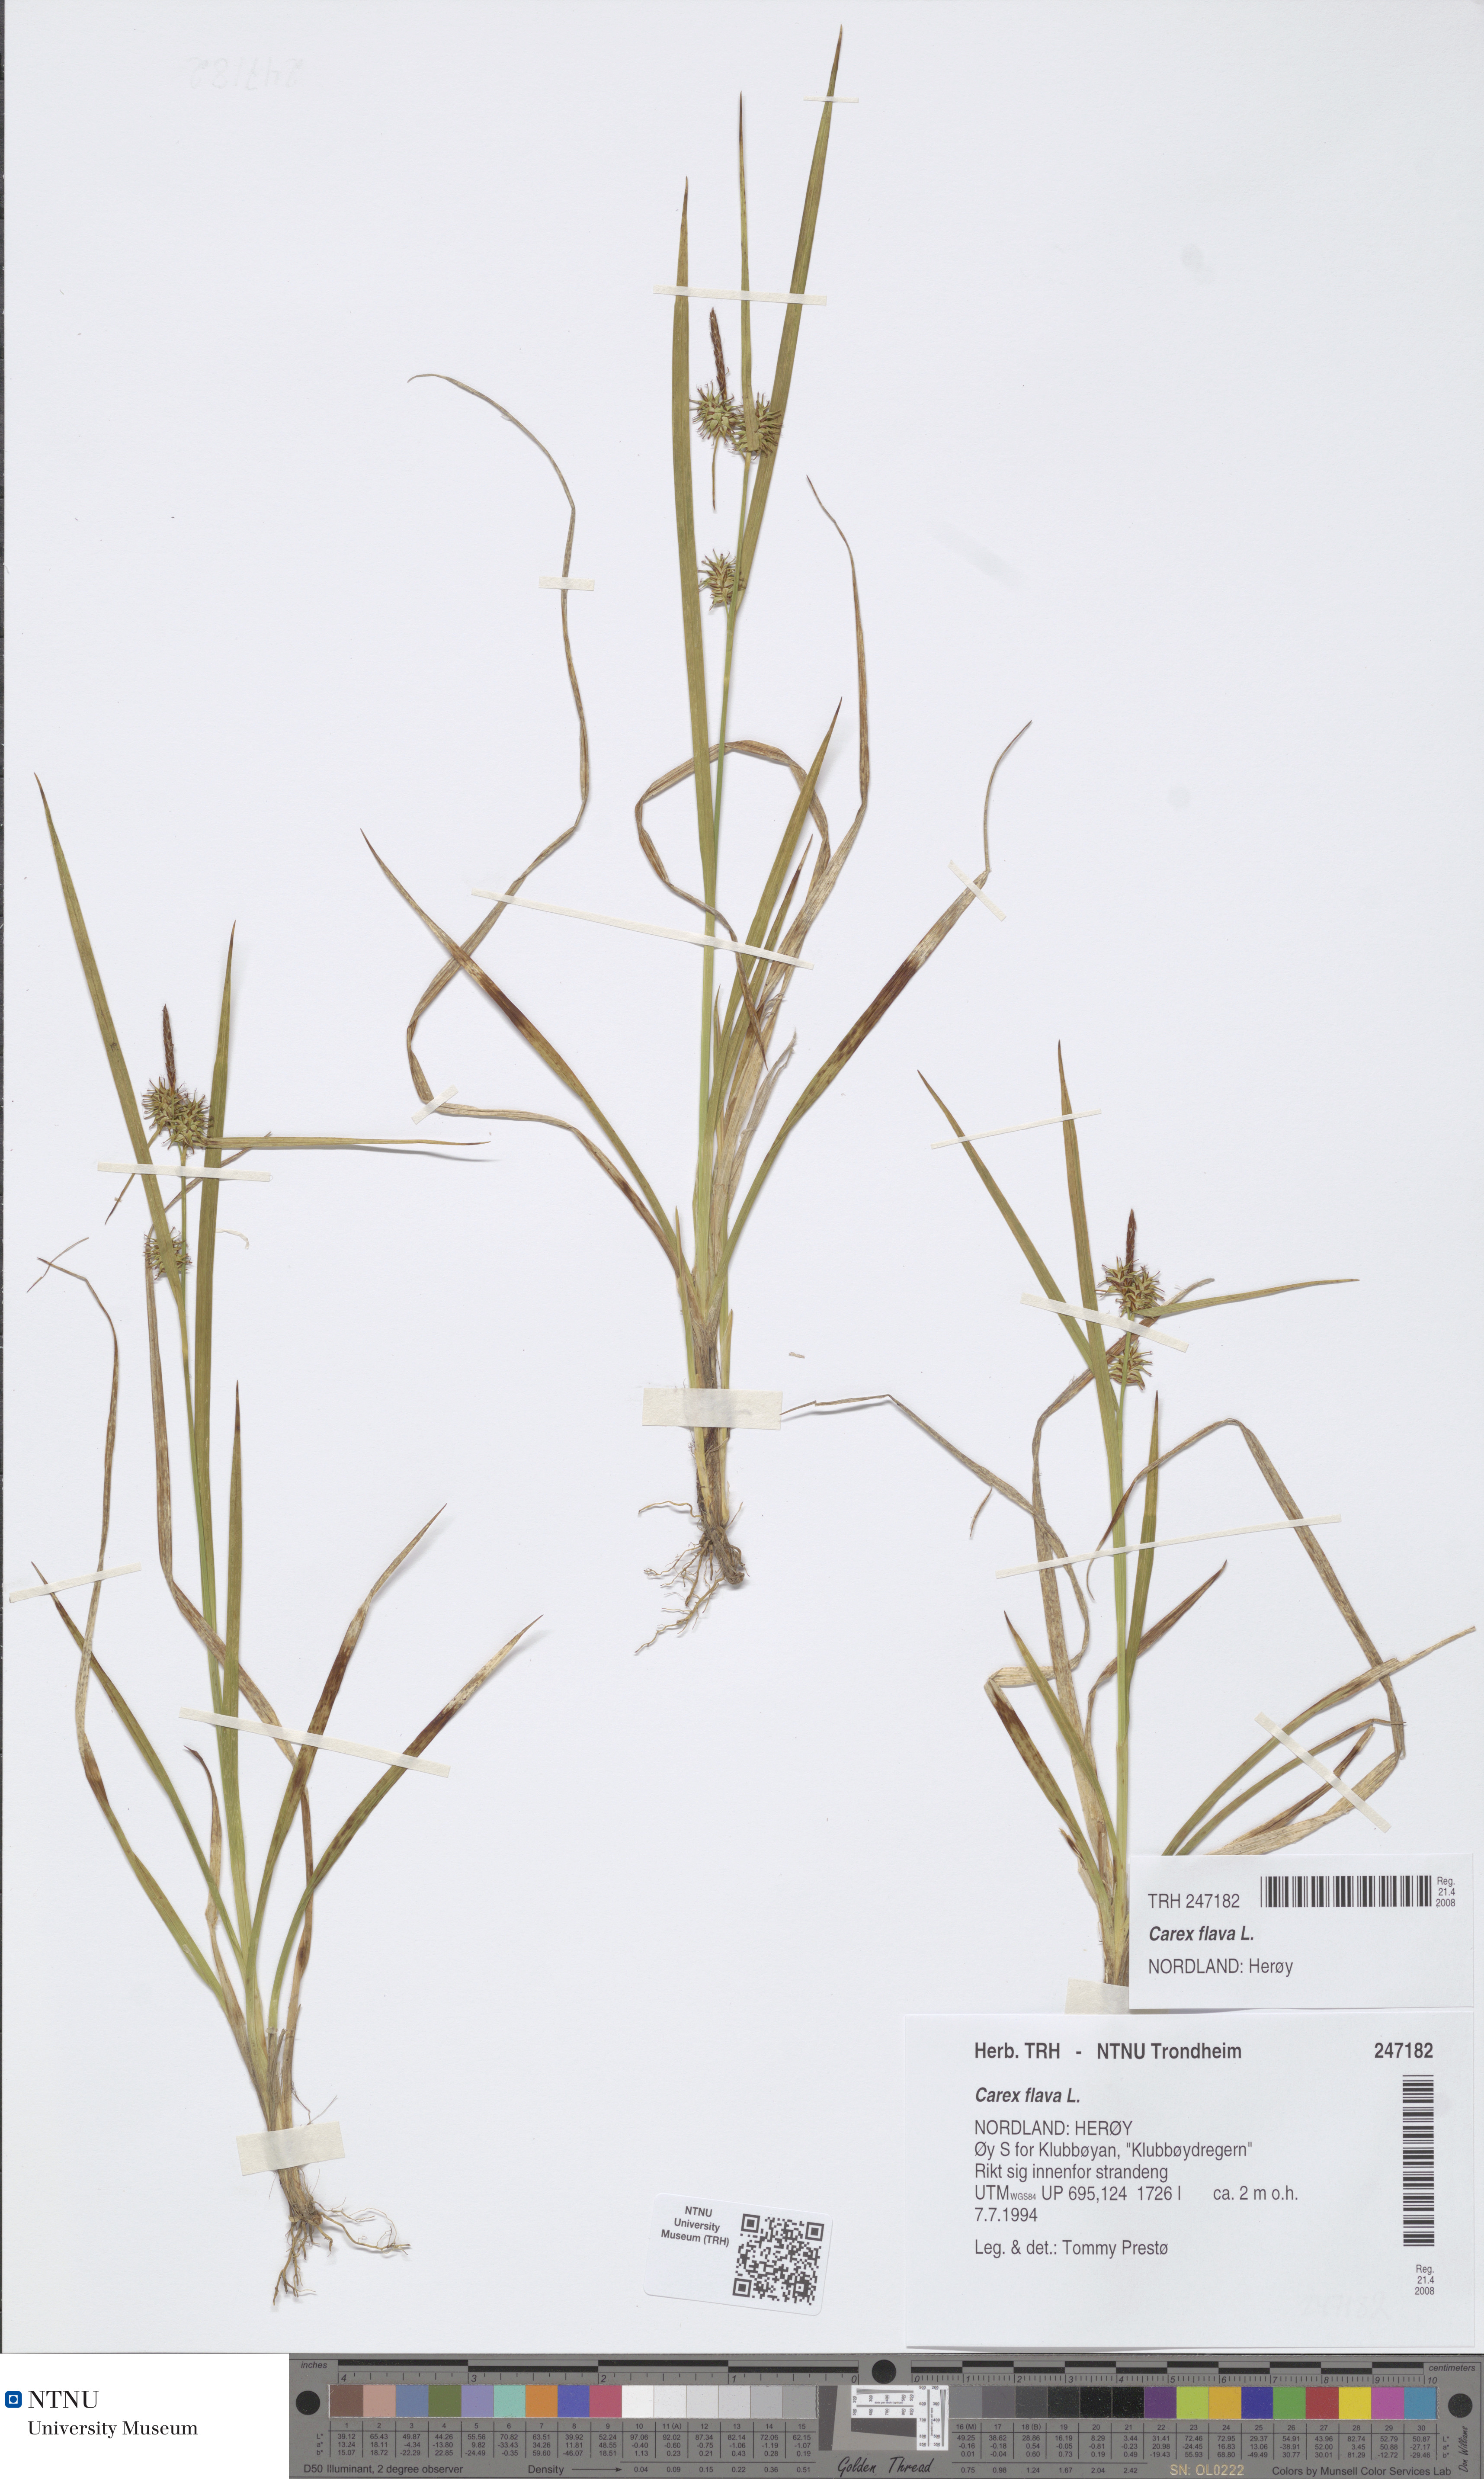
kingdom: Plantae
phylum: Tracheophyta
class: Liliopsida
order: Poales
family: Cyperaceae
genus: Carex
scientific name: Carex flava
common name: Large yellow-sedge
